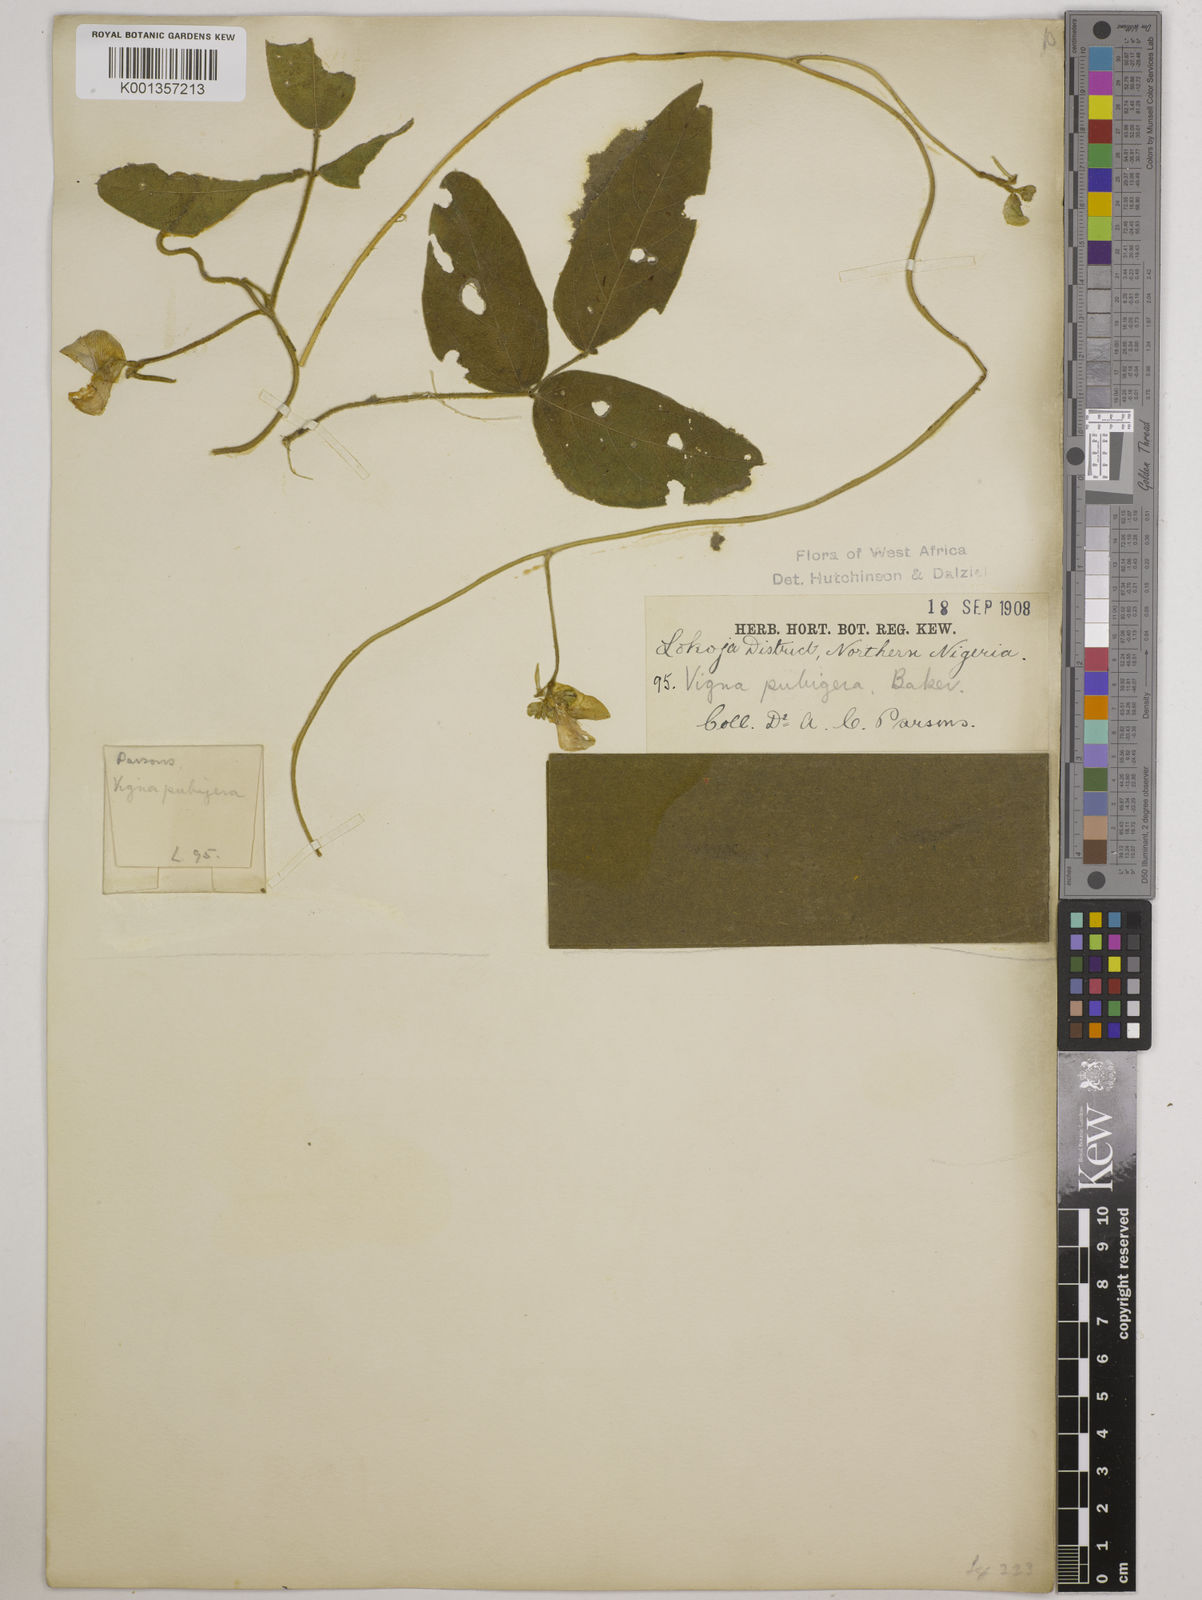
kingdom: Plantae
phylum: Tracheophyta
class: Magnoliopsida
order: Fabales
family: Fabaceae
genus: Vigna
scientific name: Vigna ambacensis
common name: Tsarkiyan zomo
